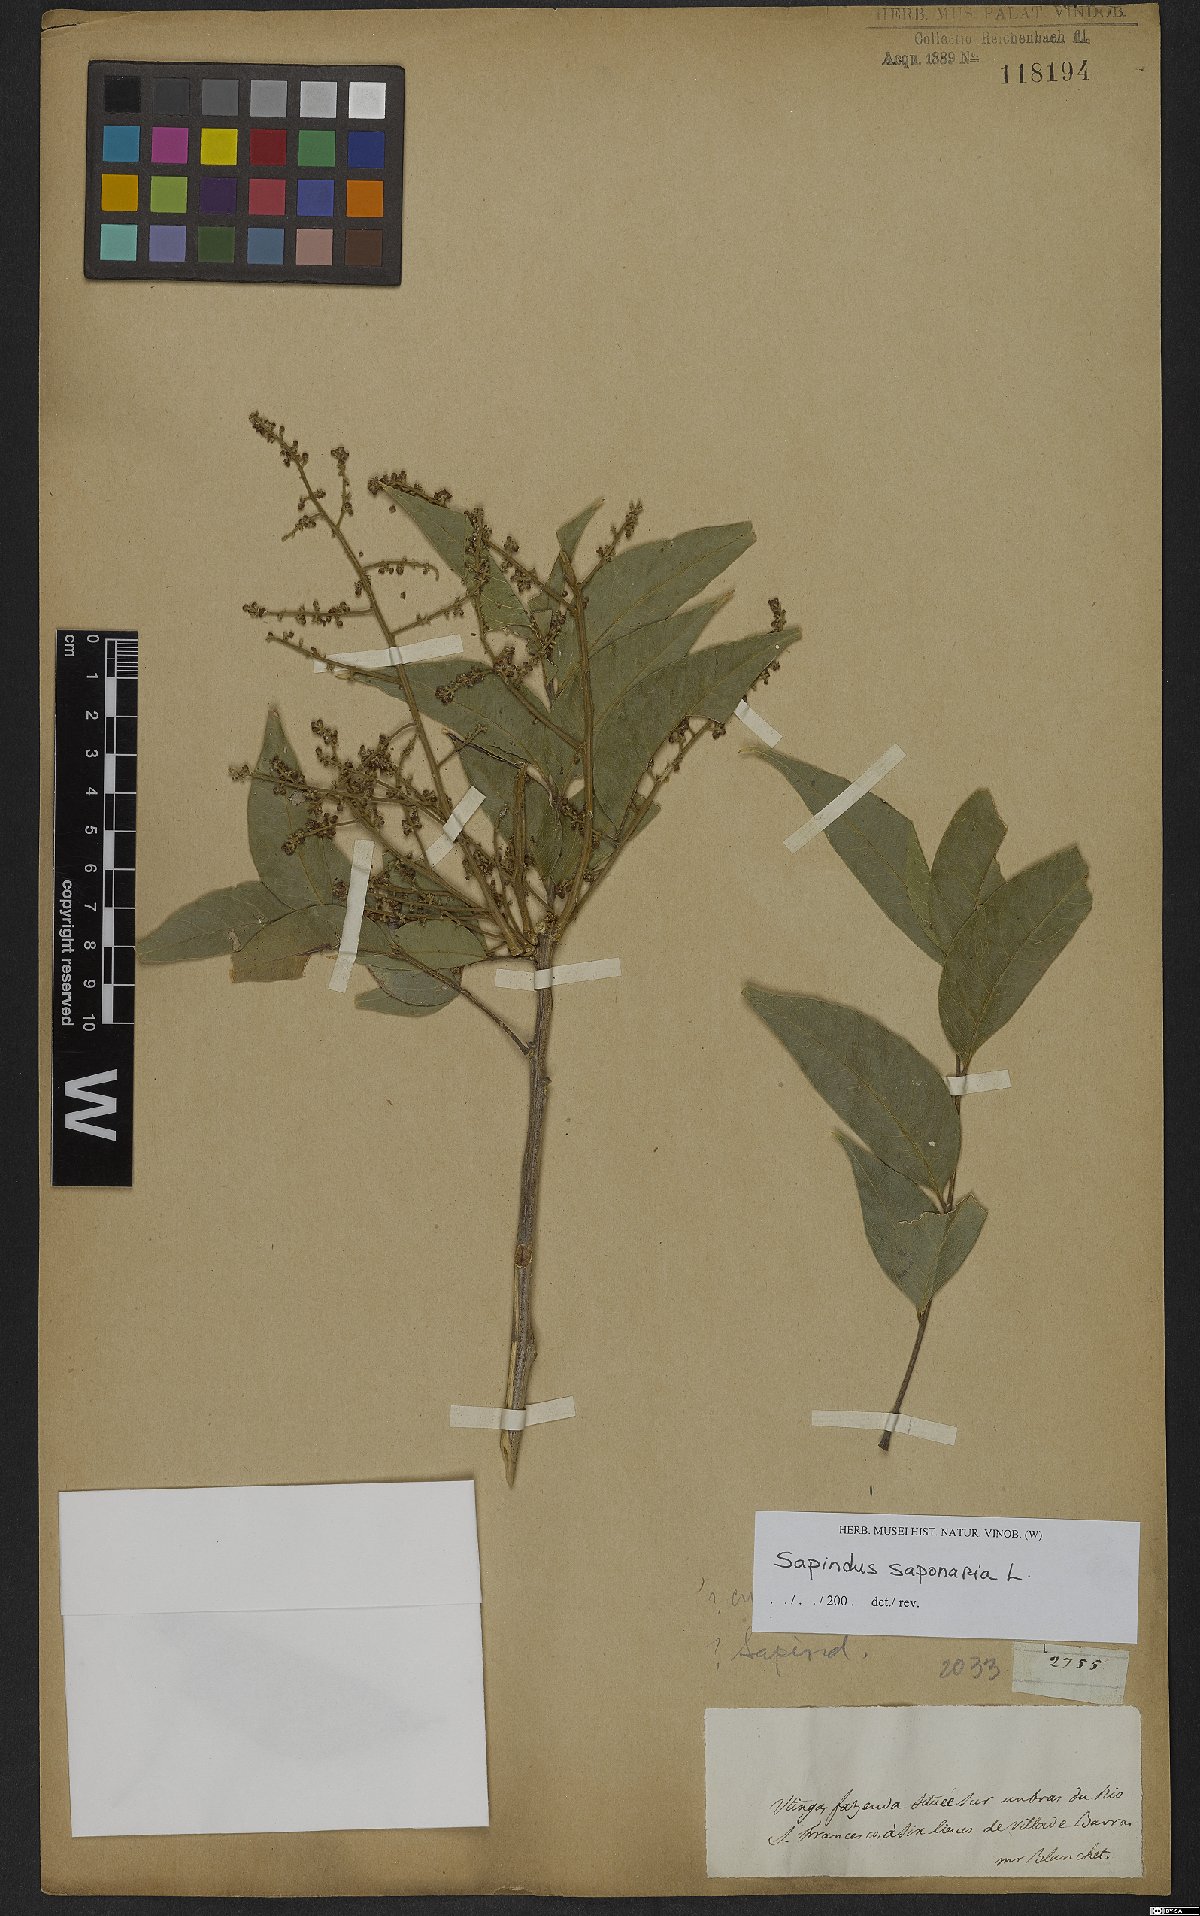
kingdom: Plantae
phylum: Tracheophyta
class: Magnoliopsida
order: Sapindales
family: Sapindaceae
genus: Sapindus
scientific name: Sapindus saponaria
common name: Wingleaf soapberry
